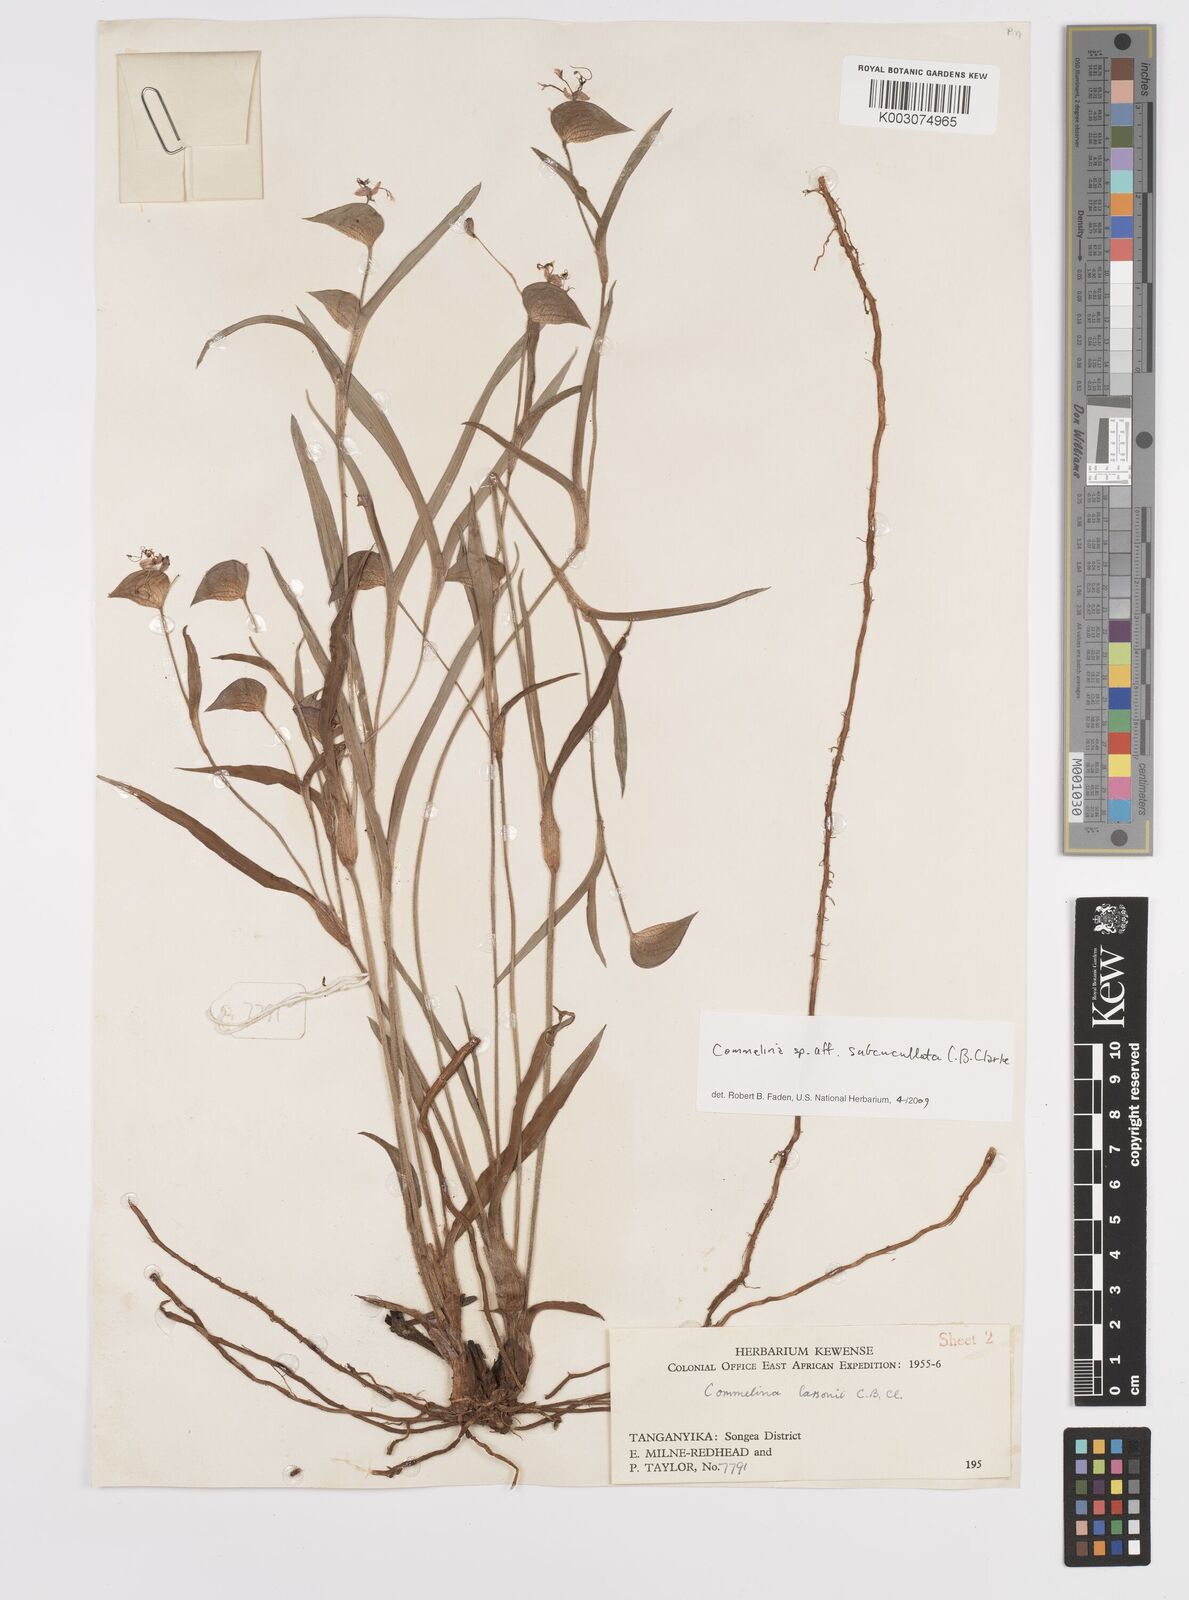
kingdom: Plantae
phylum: Tracheophyta
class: Liliopsida
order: Commelinales
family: Commelinaceae
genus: Commelina
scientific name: Commelina subcucullata
